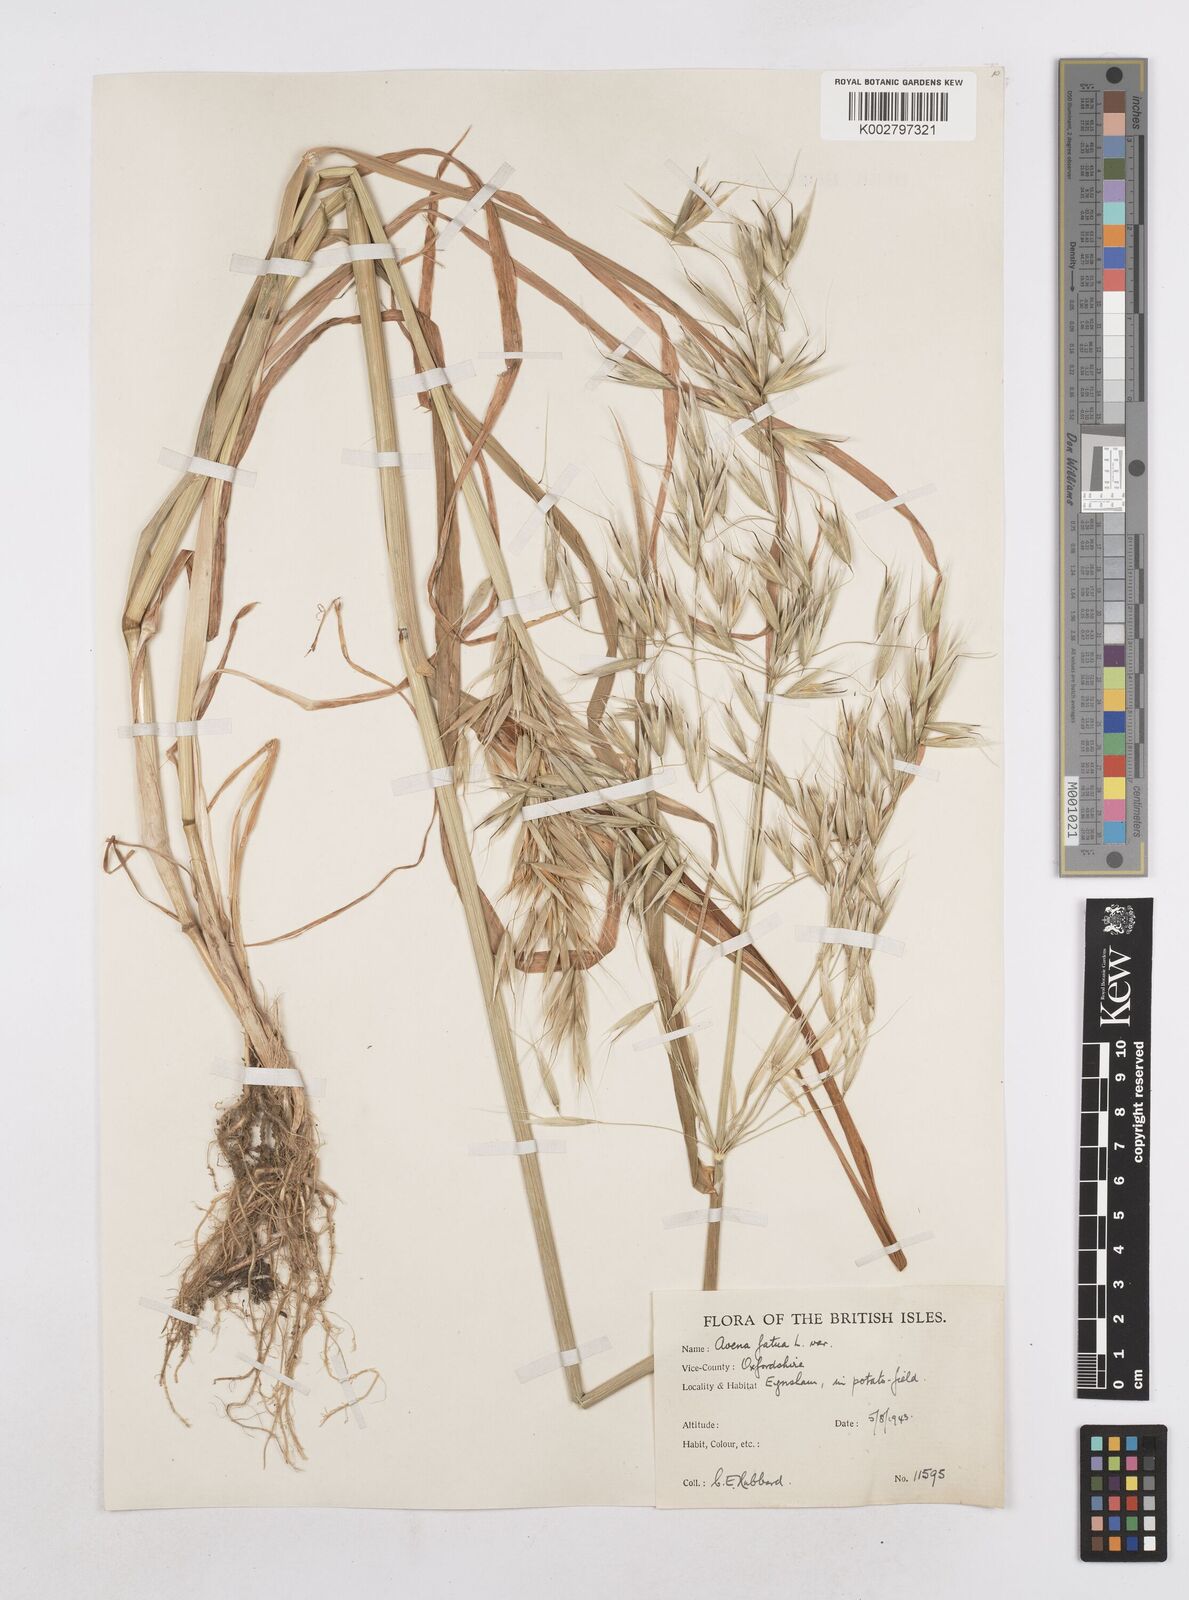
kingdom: Plantae
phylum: Tracheophyta
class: Liliopsida
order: Poales
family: Poaceae
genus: Avena
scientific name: Avena fatua
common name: Wild oat
